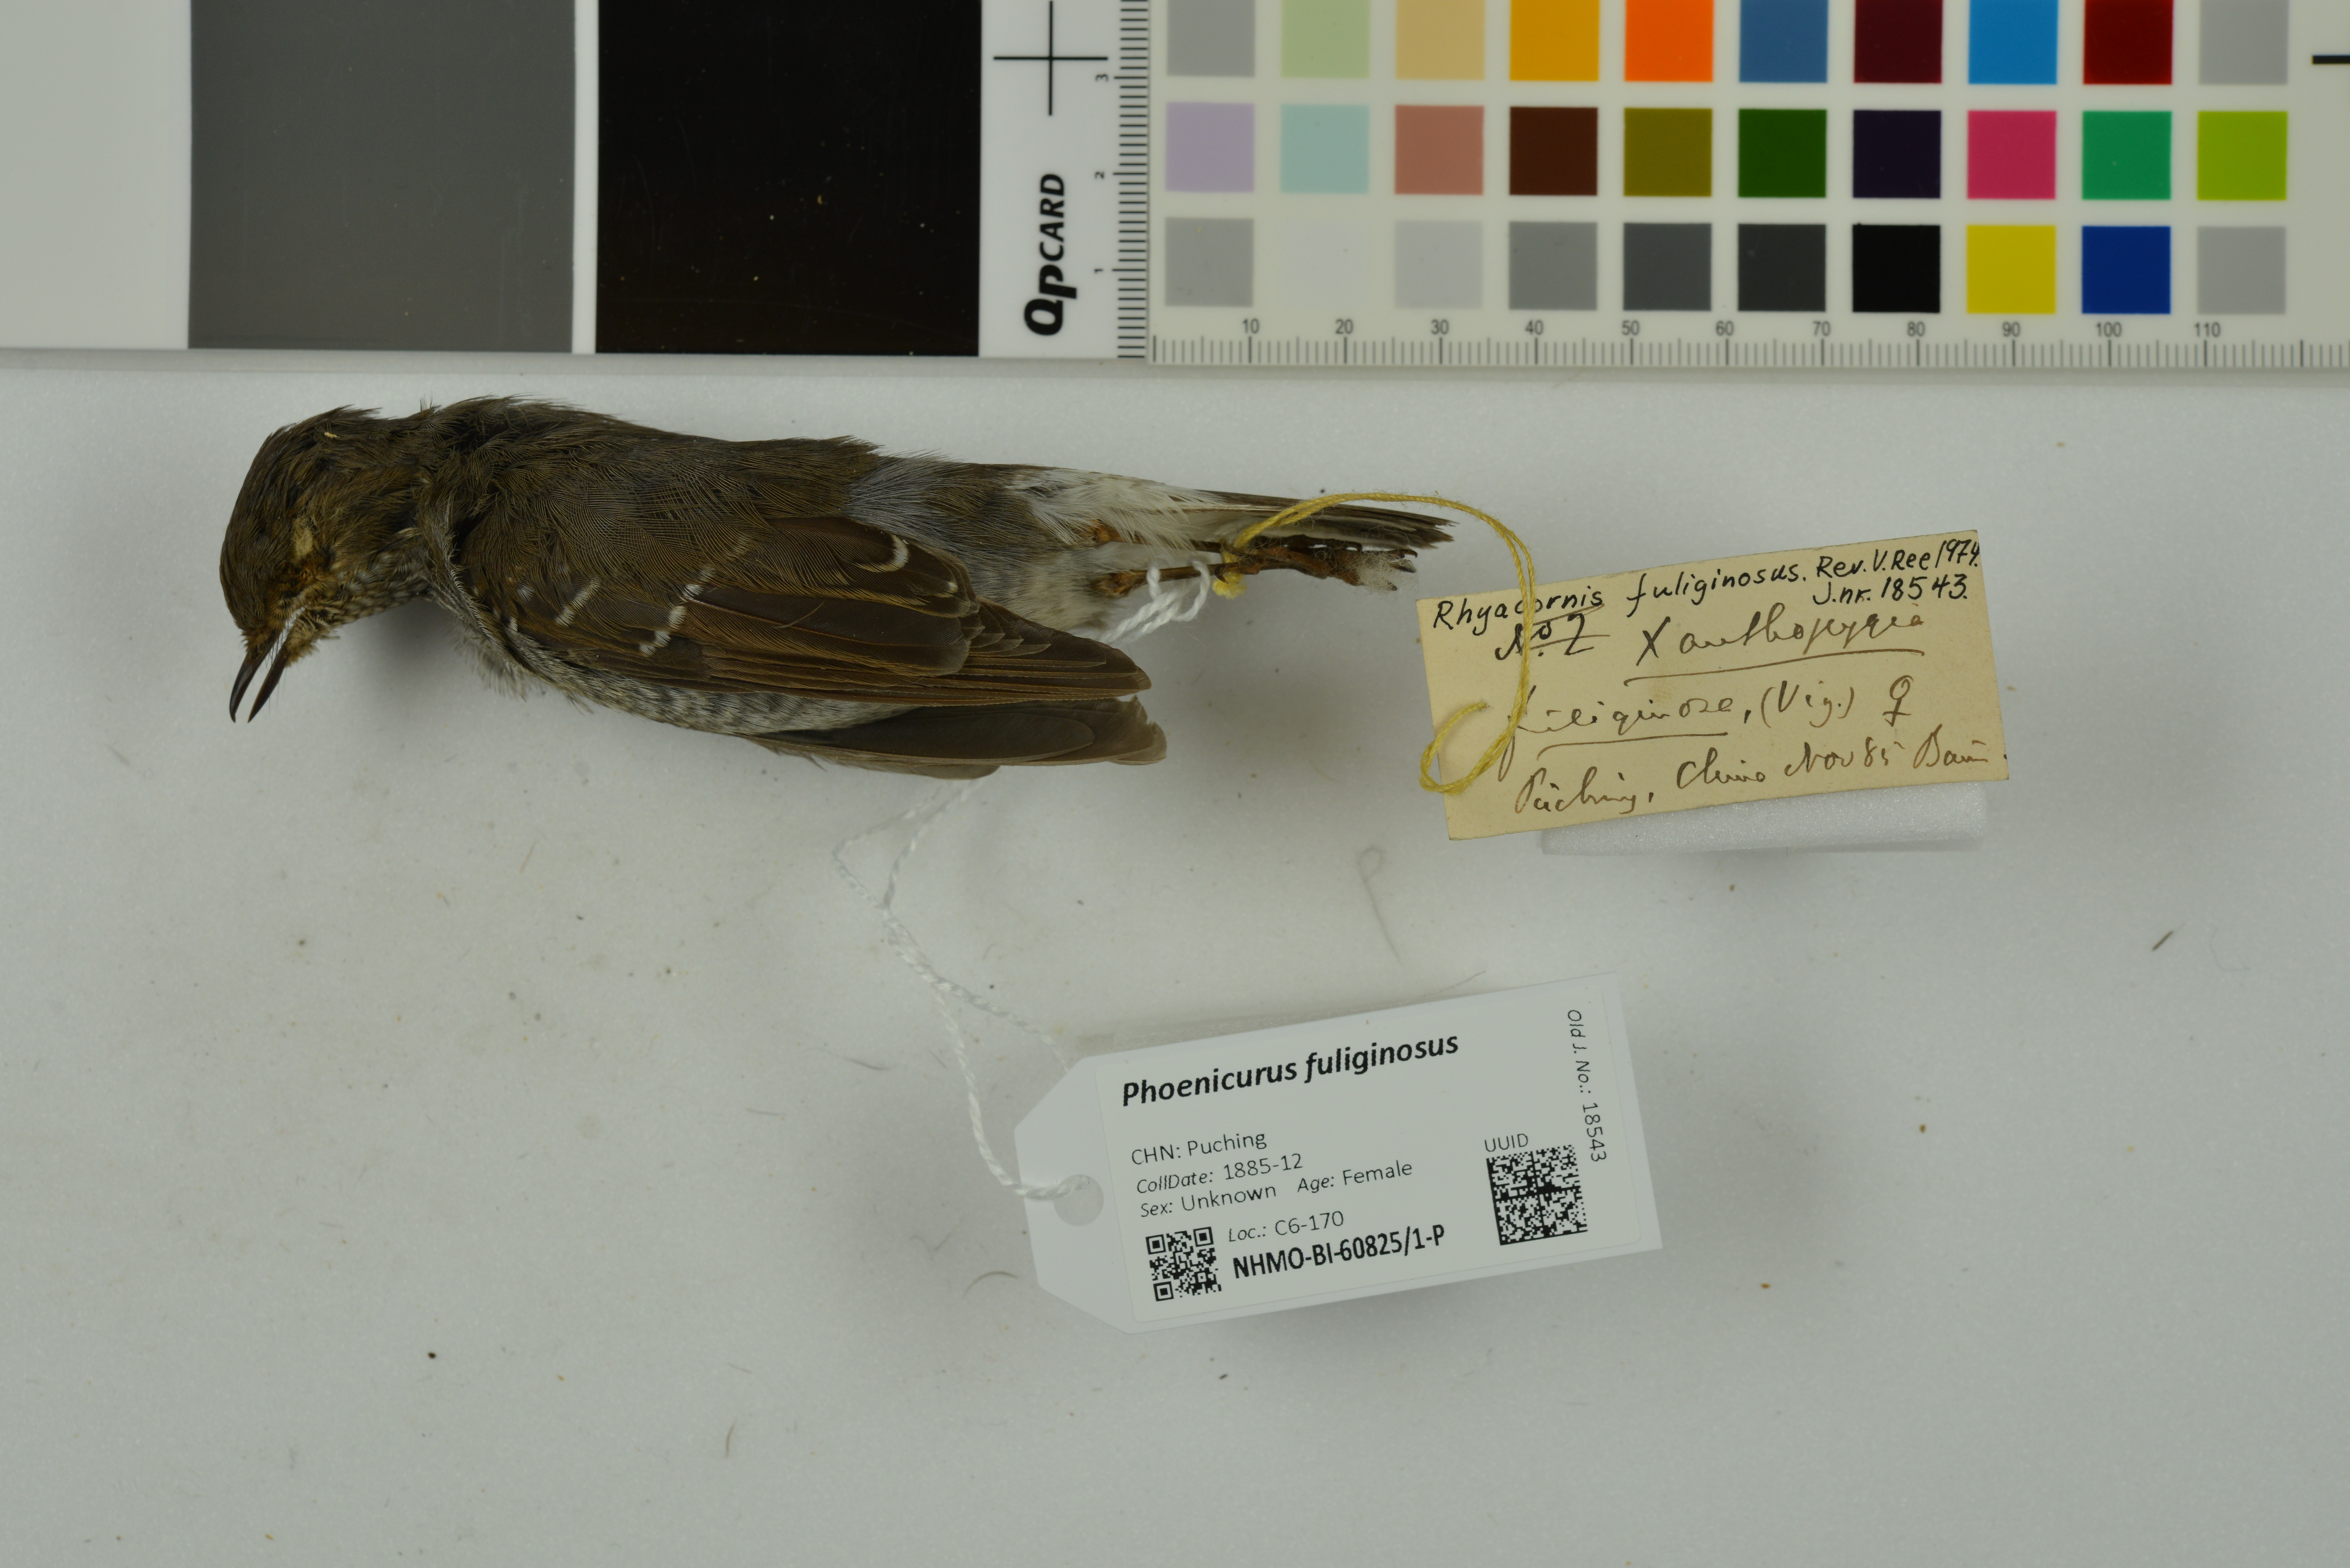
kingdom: Animalia
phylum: Chordata
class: Aves
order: Passeriformes
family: Muscicapidae
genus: Phoenicurus
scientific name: Phoenicurus fuliginosus
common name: Plumbeous water redstart
